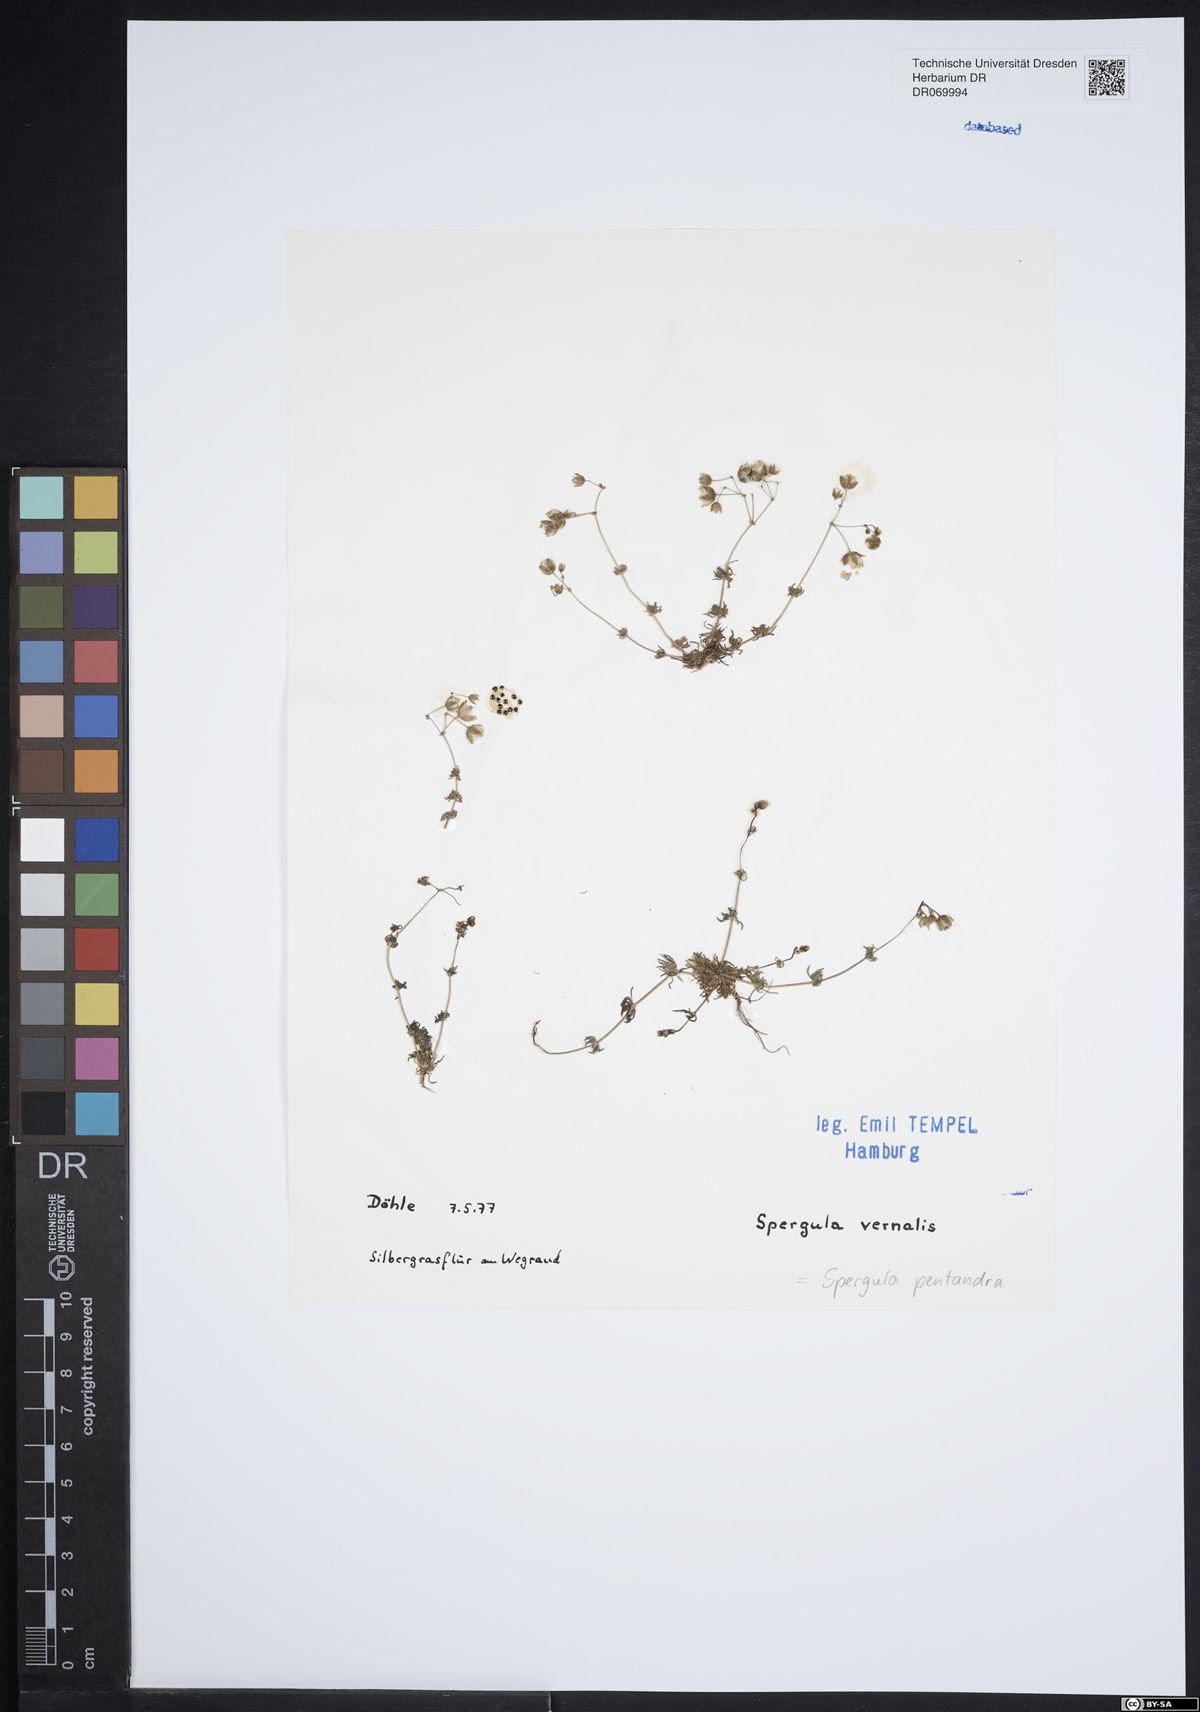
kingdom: Plantae
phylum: Tracheophyta
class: Magnoliopsida
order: Caryophyllales
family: Caryophyllaceae
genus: Spergula
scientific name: Spergula pentandra
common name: Wingstem spurry
